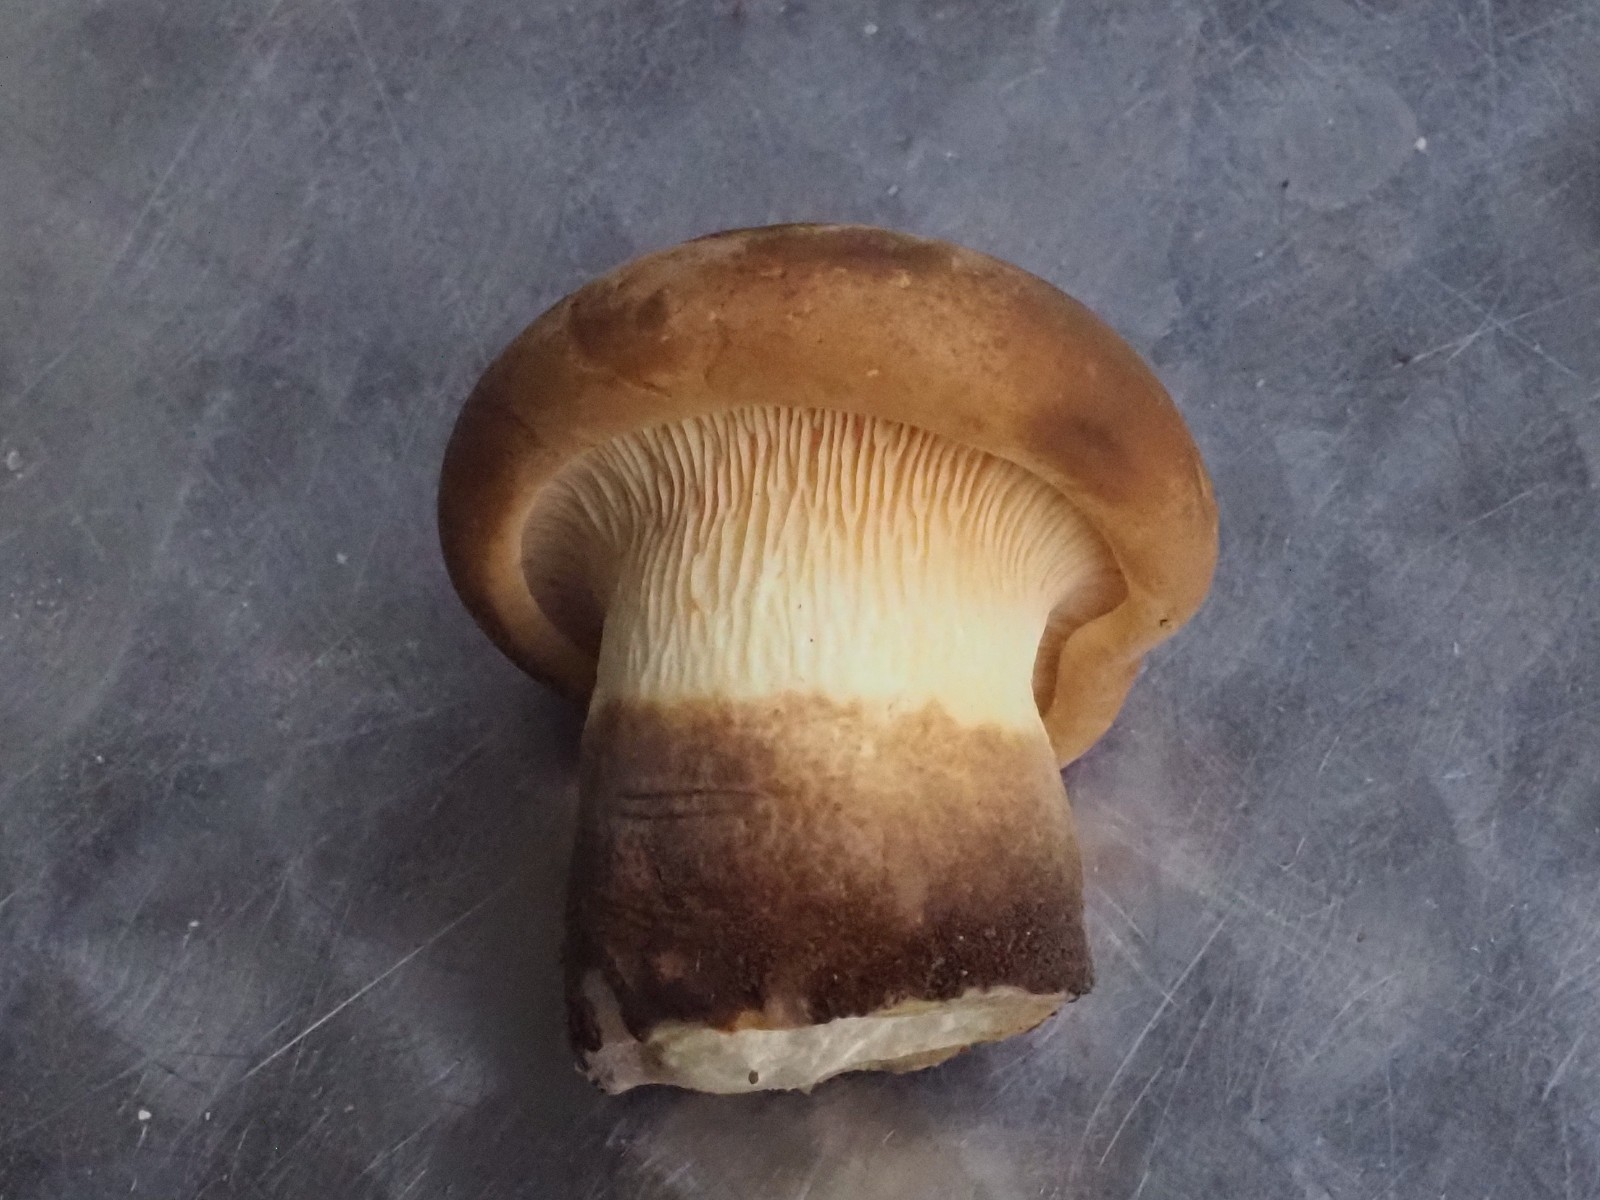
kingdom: Fungi
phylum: Basidiomycota
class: Agaricomycetes
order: Boletales
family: Tapinellaceae
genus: Tapinella
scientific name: Tapinella atrotomentosa
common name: sortfiltet viftesvamp
